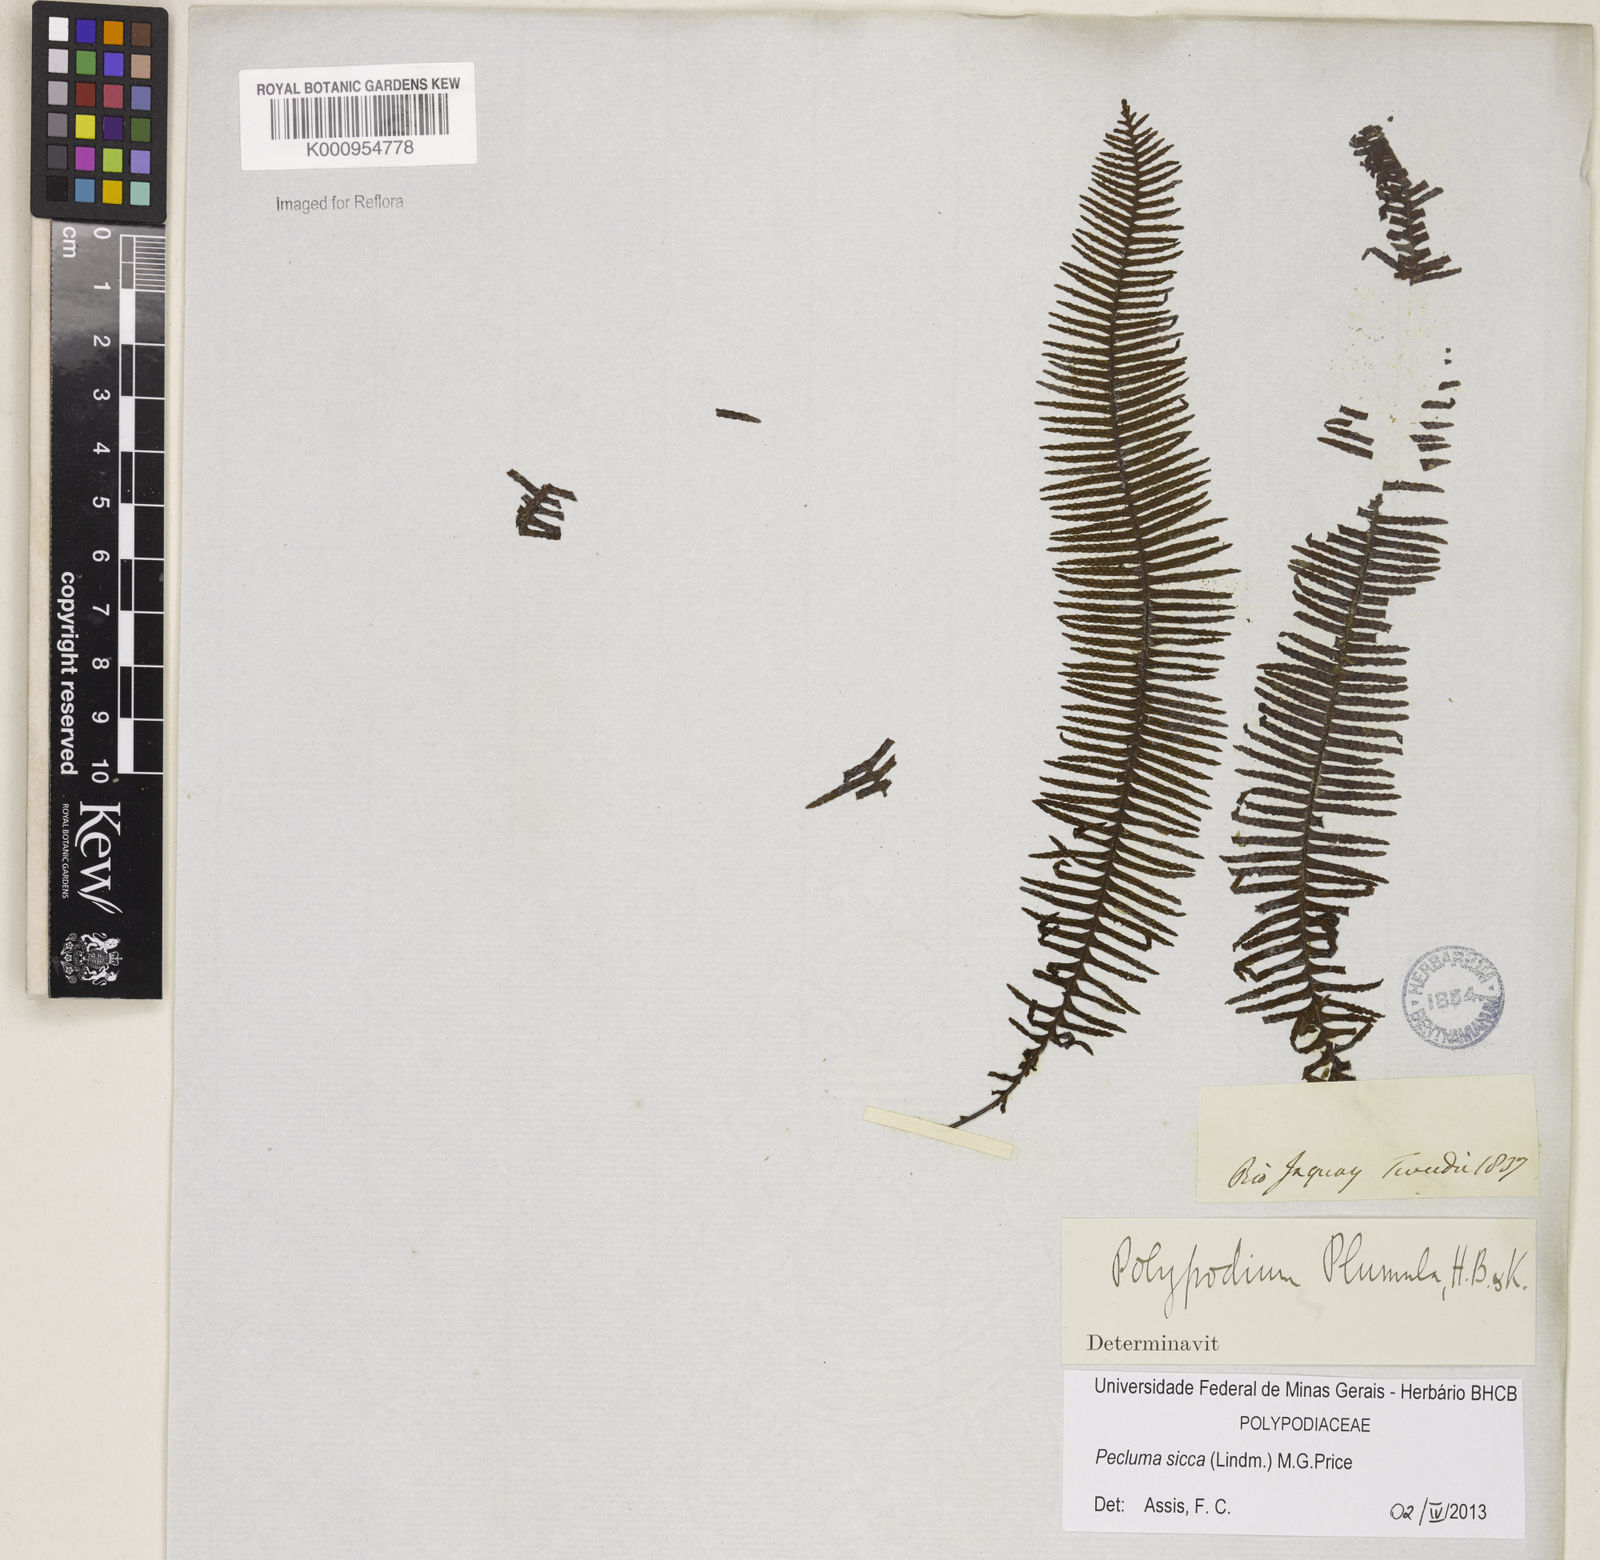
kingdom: Plantae
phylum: Tracheophyta
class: Polypodiopsida
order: Polypodiales
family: Polypodiaceae
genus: Pecluma
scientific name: Pecluma sicca
